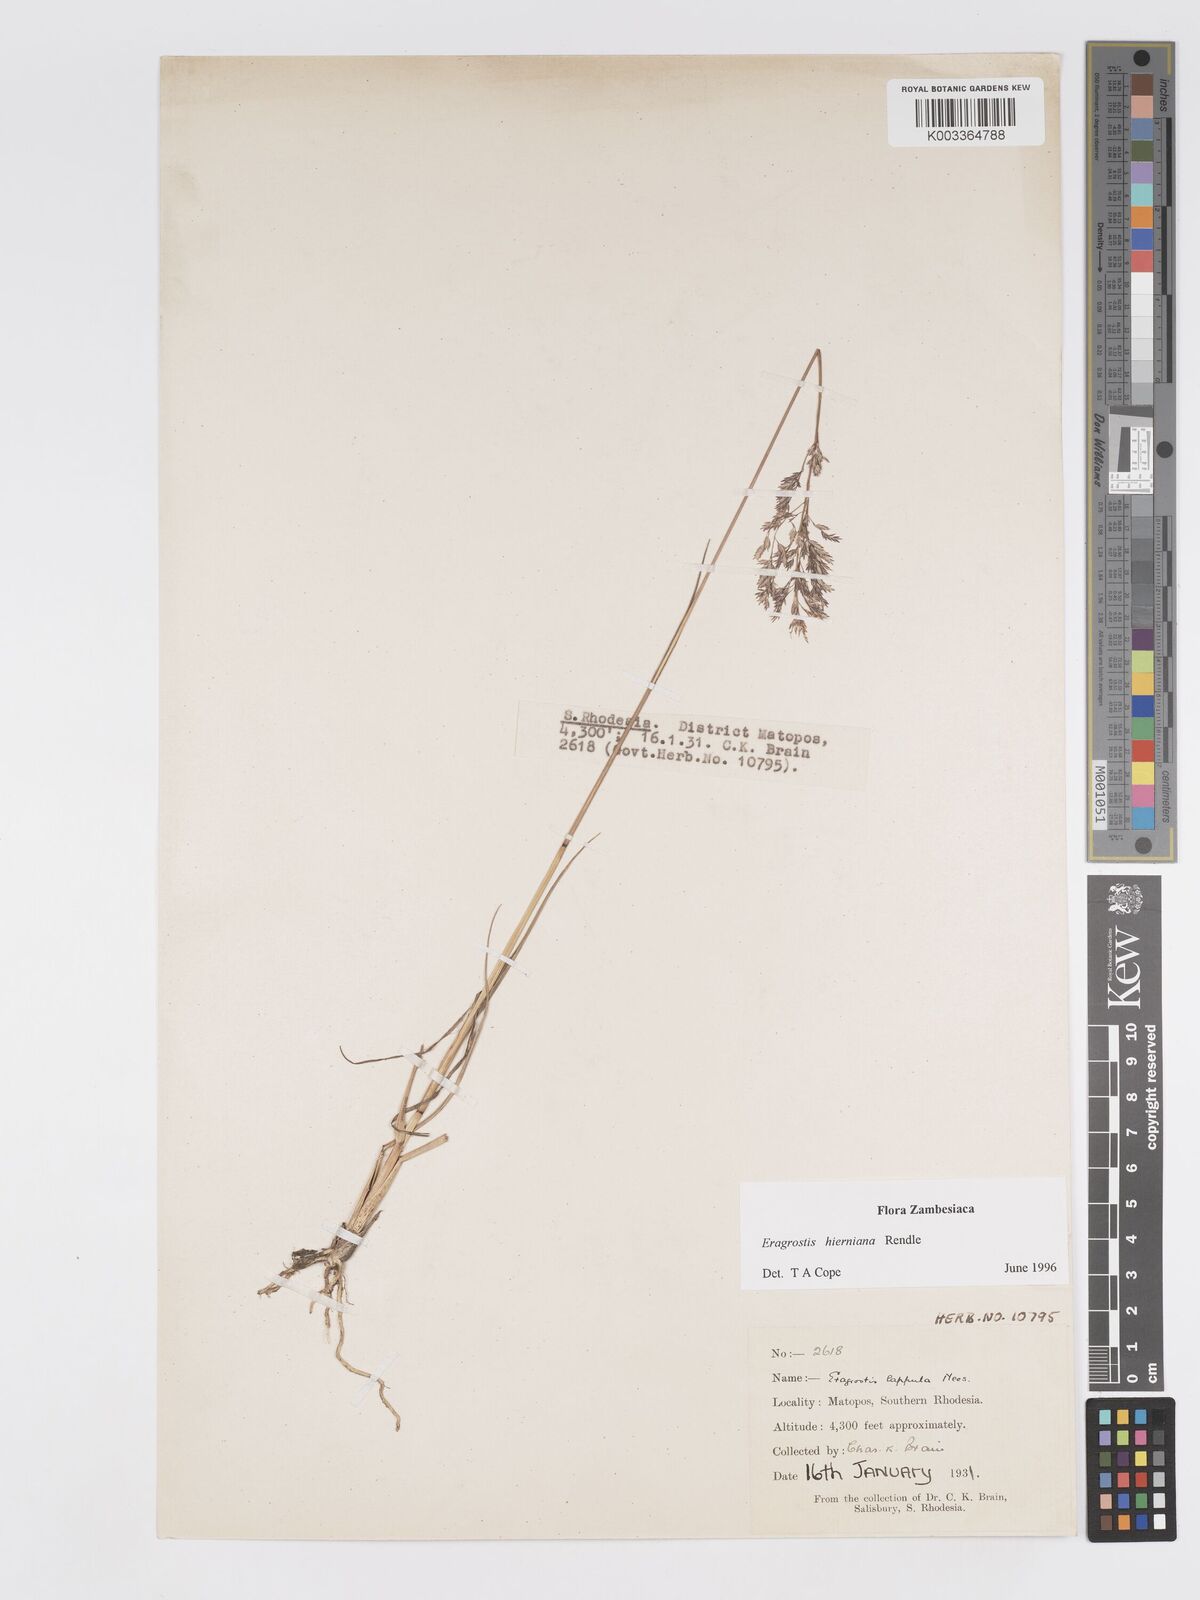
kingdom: Plantae
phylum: Tracheophyta
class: Liliopsida
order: Poales
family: Poaceae
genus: Eragrostis
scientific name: Eragrostis hierniana
